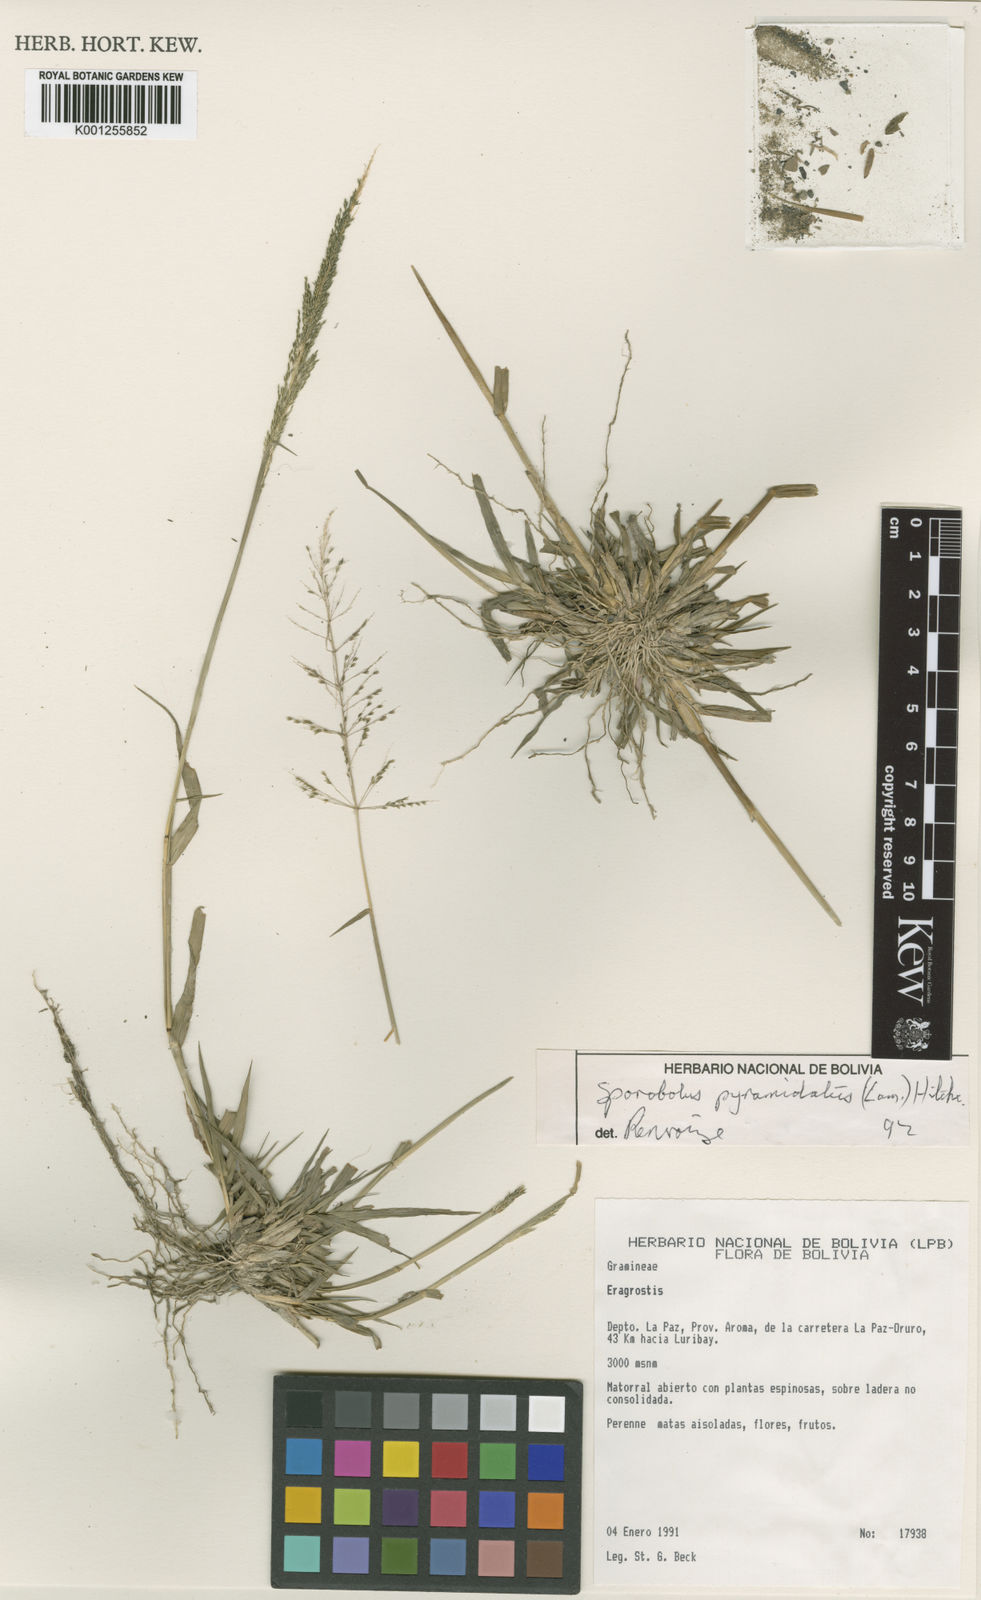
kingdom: Plantae
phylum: Tracheophyta
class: Liliopsida
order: Poales
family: Poaceae
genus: Sporobolus
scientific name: Sporobolus pyramidatus
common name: Whorled dropseed
